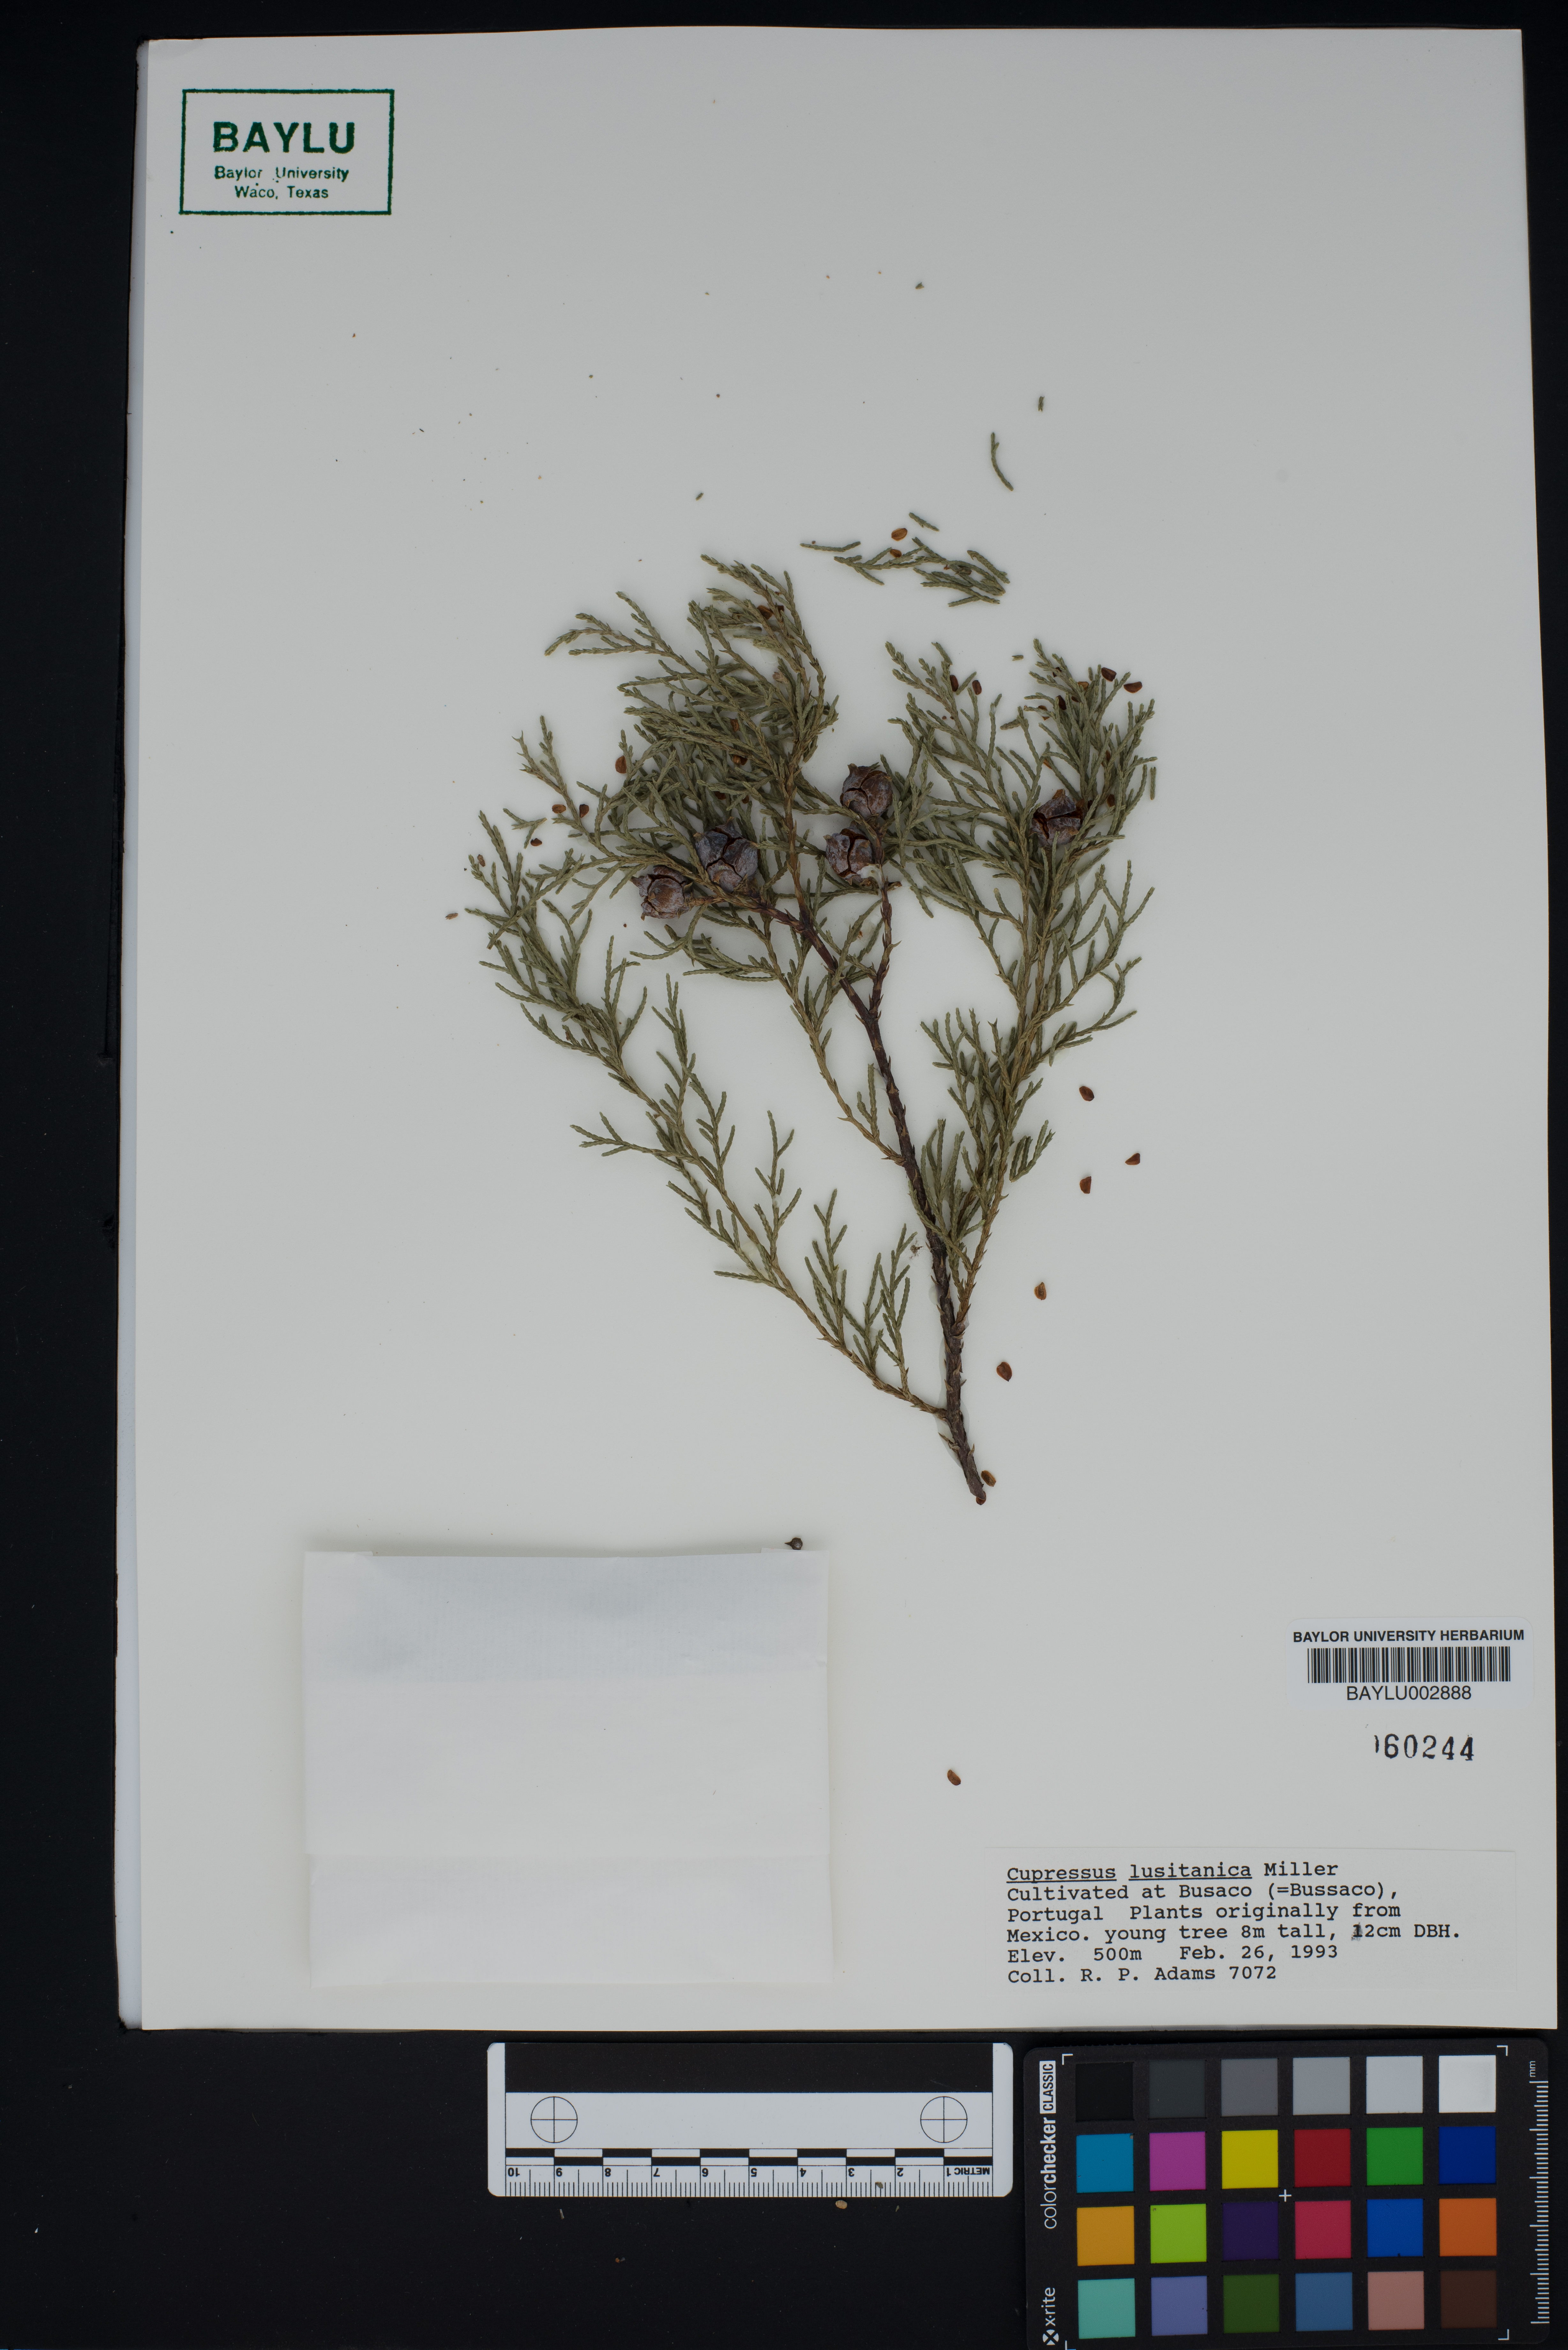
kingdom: Plantae
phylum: Tracheophyta
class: Pinopsida
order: Pinales
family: Cupressaceae
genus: Cupressus
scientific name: Cupressus lusitanica
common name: Mexican cypress
